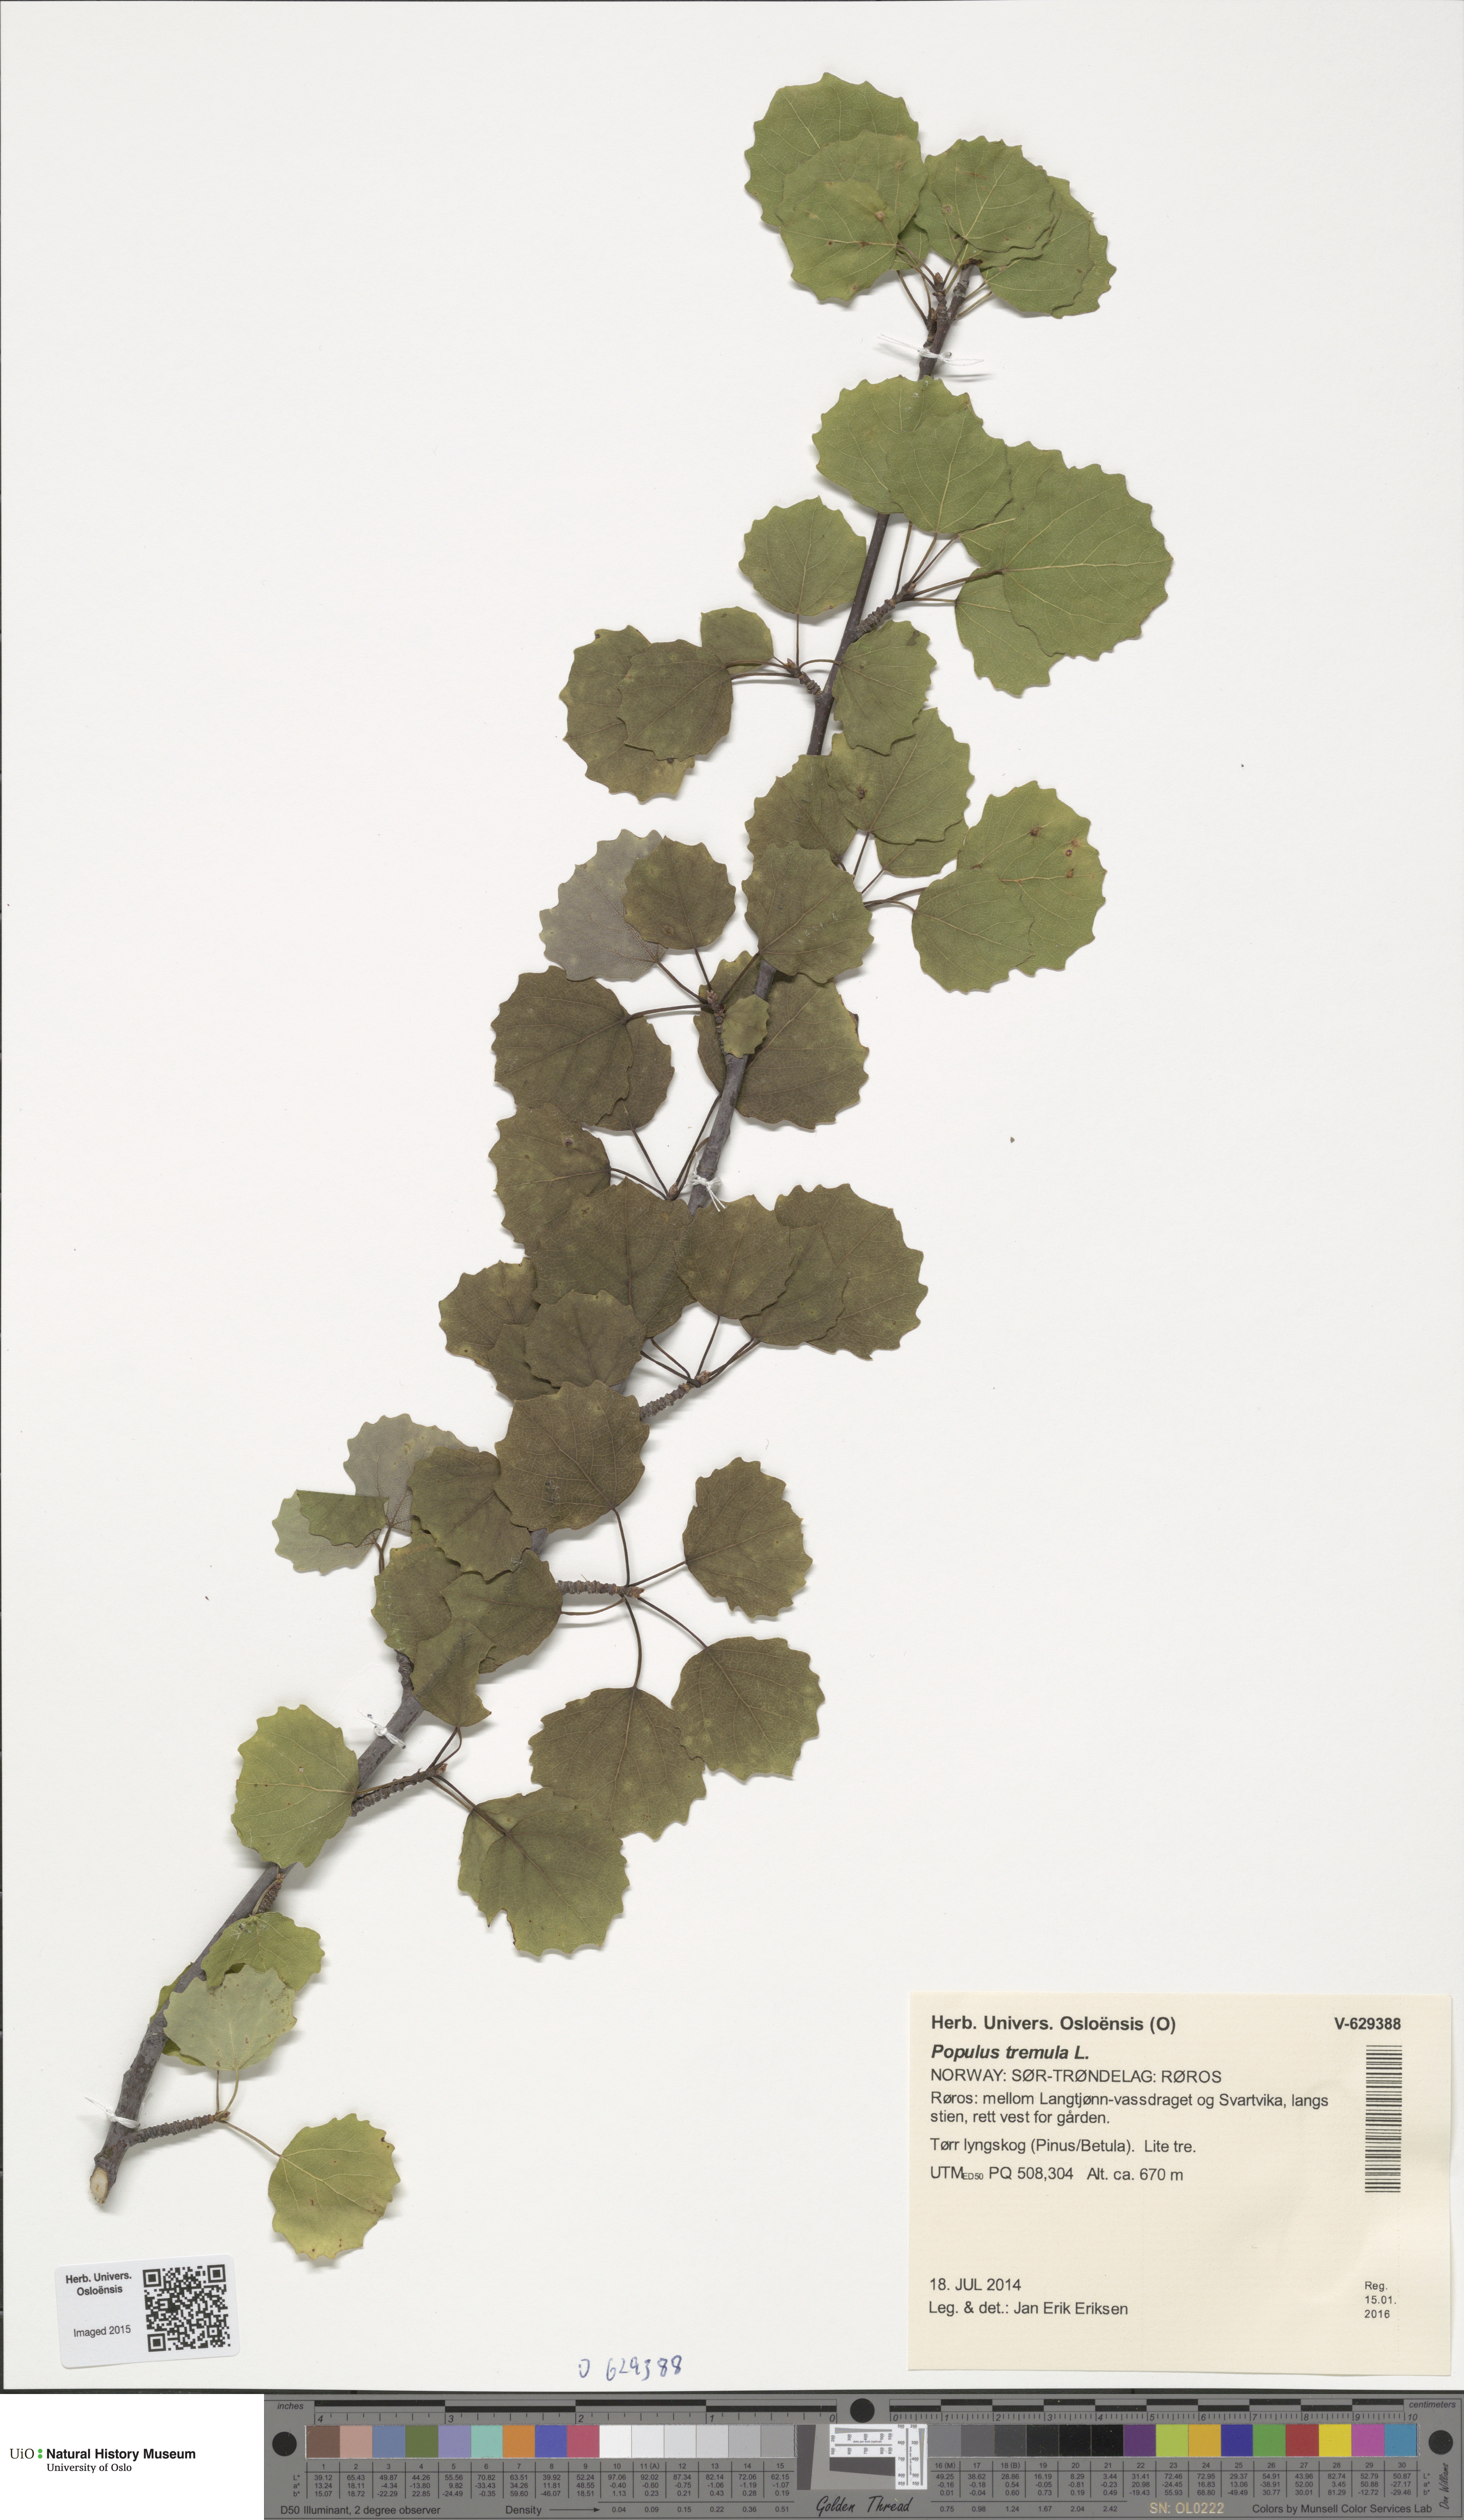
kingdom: Plantae
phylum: Tracheophyta
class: Magnoliopsida
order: Malpighiales
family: Salicaceae
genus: Populus
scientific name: Populus tremula
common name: European aspen
